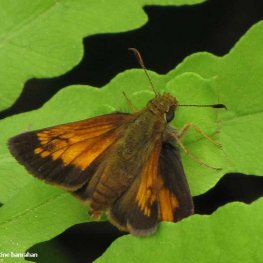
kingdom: Animalia
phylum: Arthropoda
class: Insecta
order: Lepidoptera
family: Hesperiidae
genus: Lon
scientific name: Lon hobomok
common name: Hobomok Skipper
